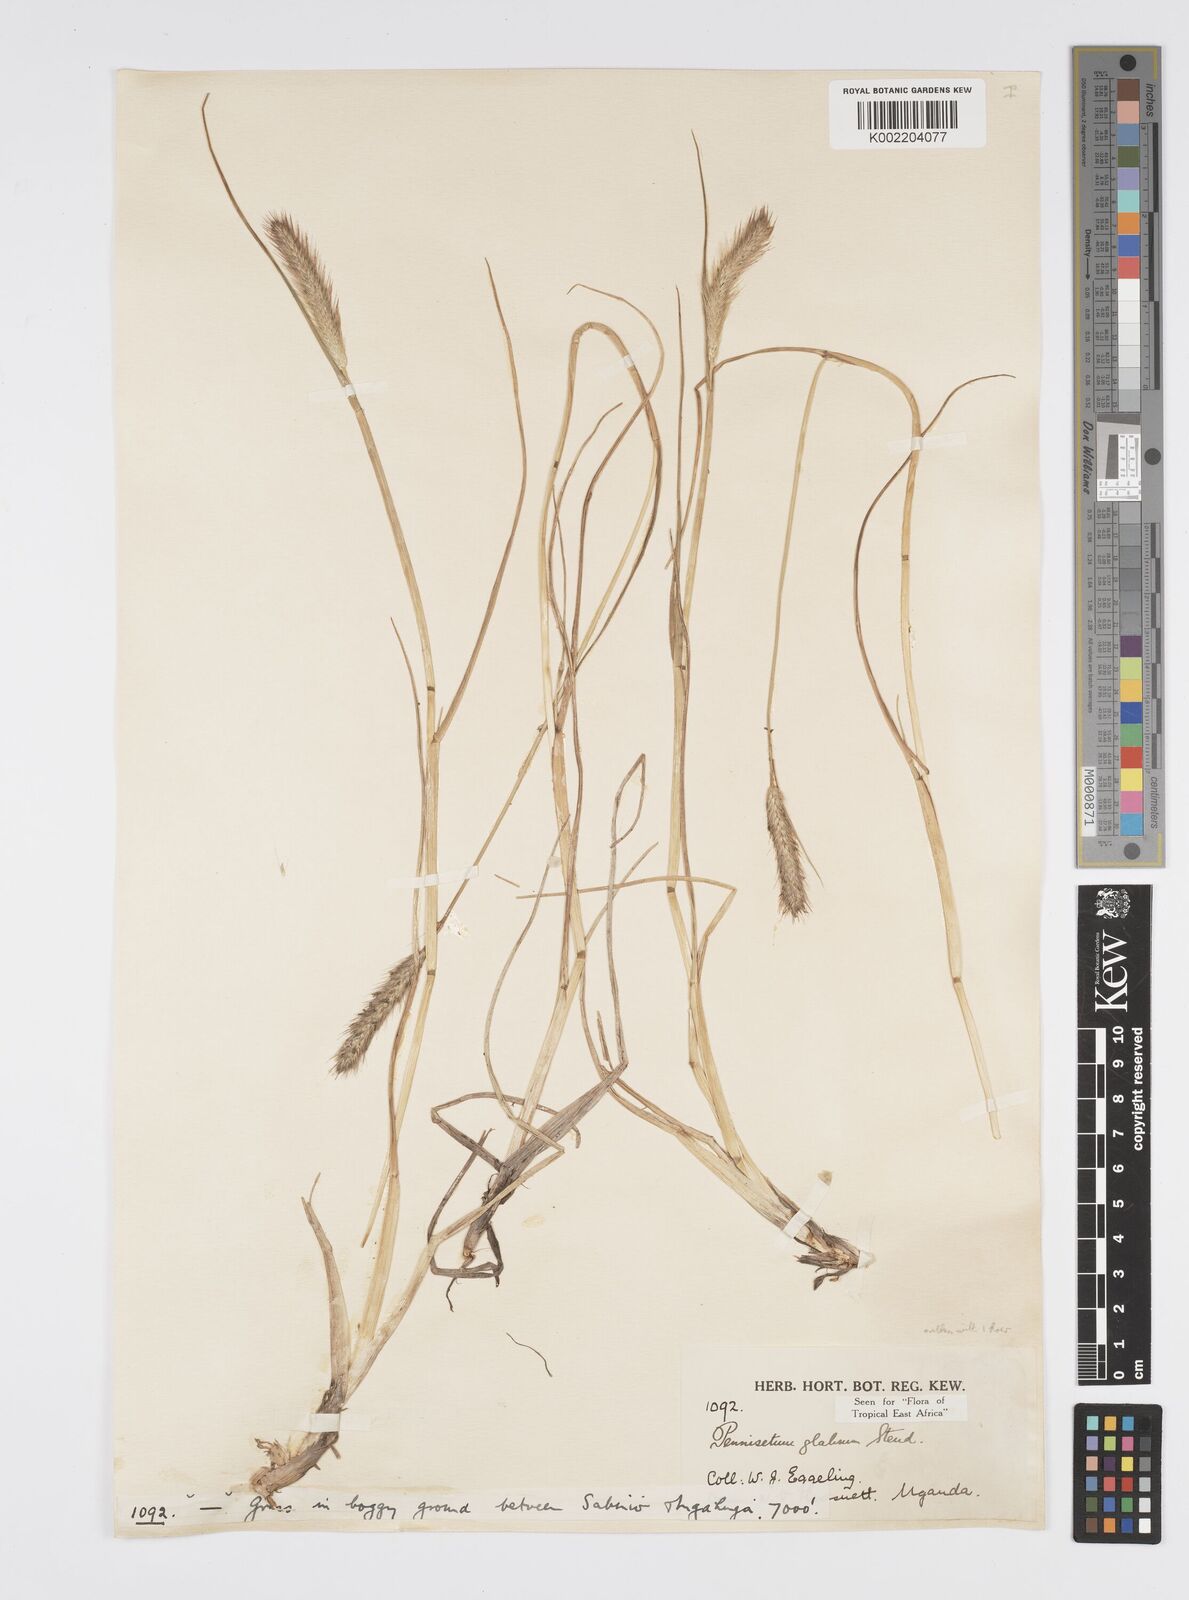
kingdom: Plantae
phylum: Tracheophyta
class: Liliopsida
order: Poales
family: Poaceae
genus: Cenchrus
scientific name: Cenchrus geniculatus
